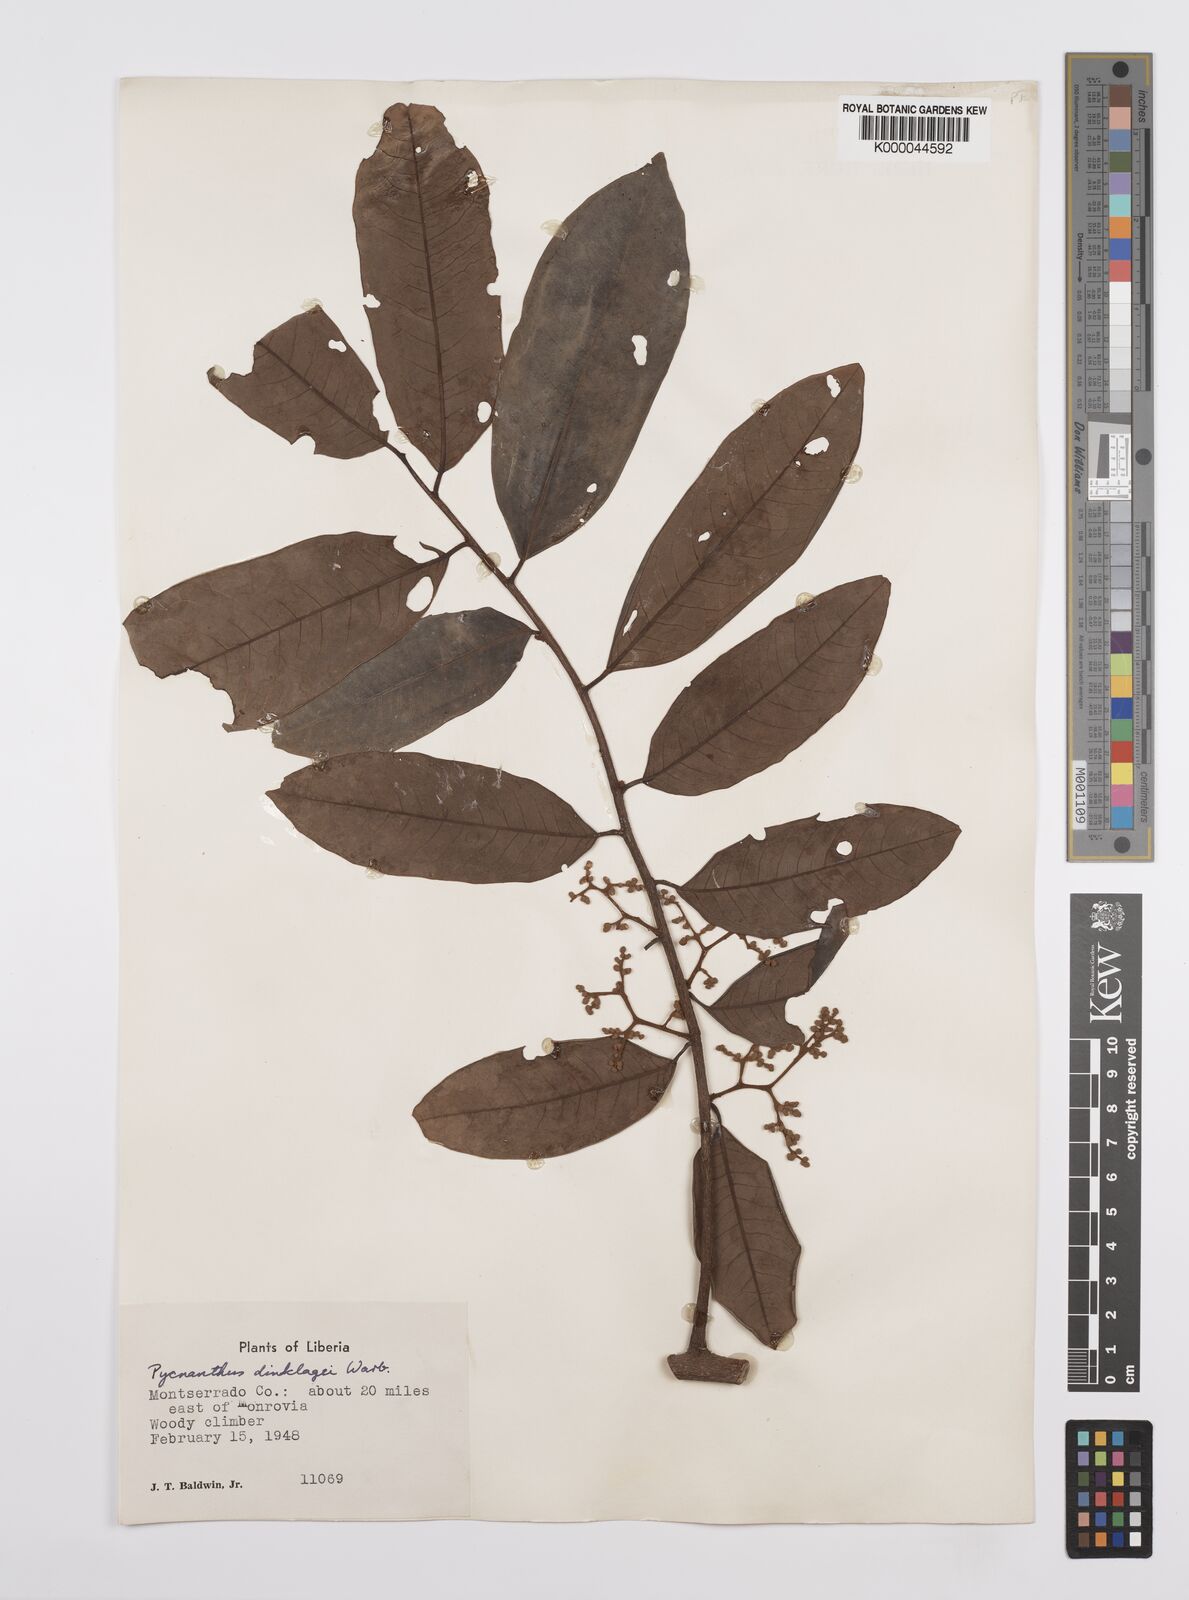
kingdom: Plantae
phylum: Tracheophyta
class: Magnoliopsida
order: Magnoliales
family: Myristicaceae
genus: Pycnanthus
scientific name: Pycnanthus dinklagei
